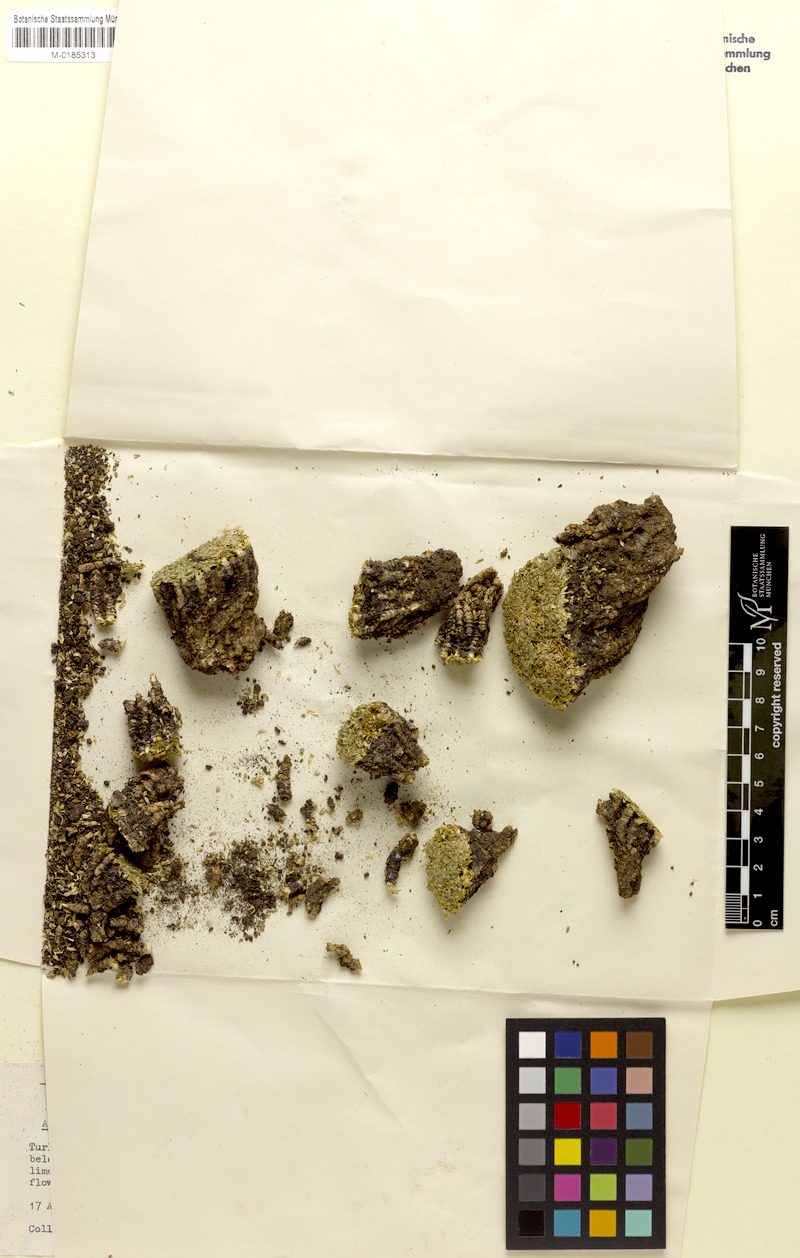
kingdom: Plantae
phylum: Tracheophyta
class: Magnoliopsida
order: Asterales
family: Campanulaceae
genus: Asyneuma
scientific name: Asyneuma pulvinatum
